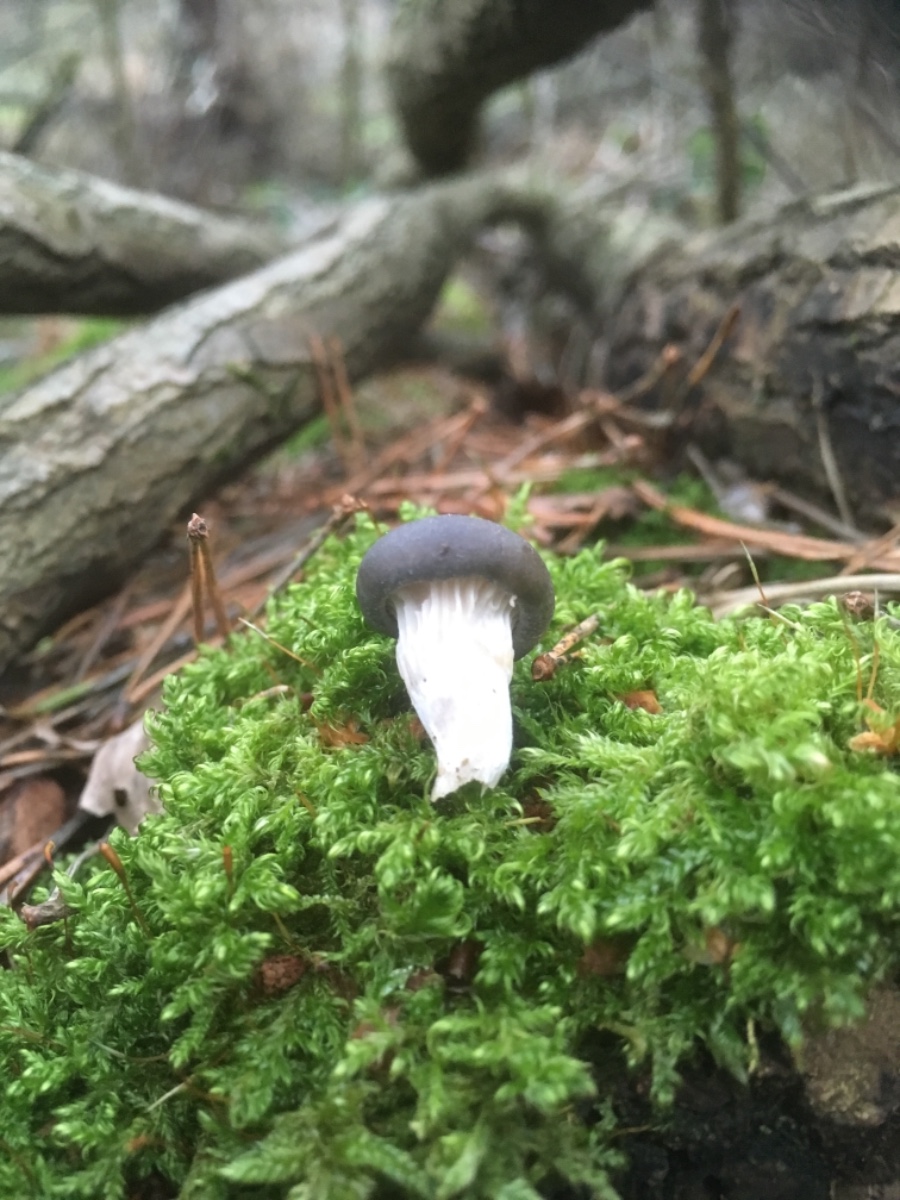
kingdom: Fungi
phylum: Basidiomycota
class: Agaricomycetes
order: Agaricales
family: Pleurotaceae
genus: Pleurotus
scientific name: Pleurotus ostreatus
